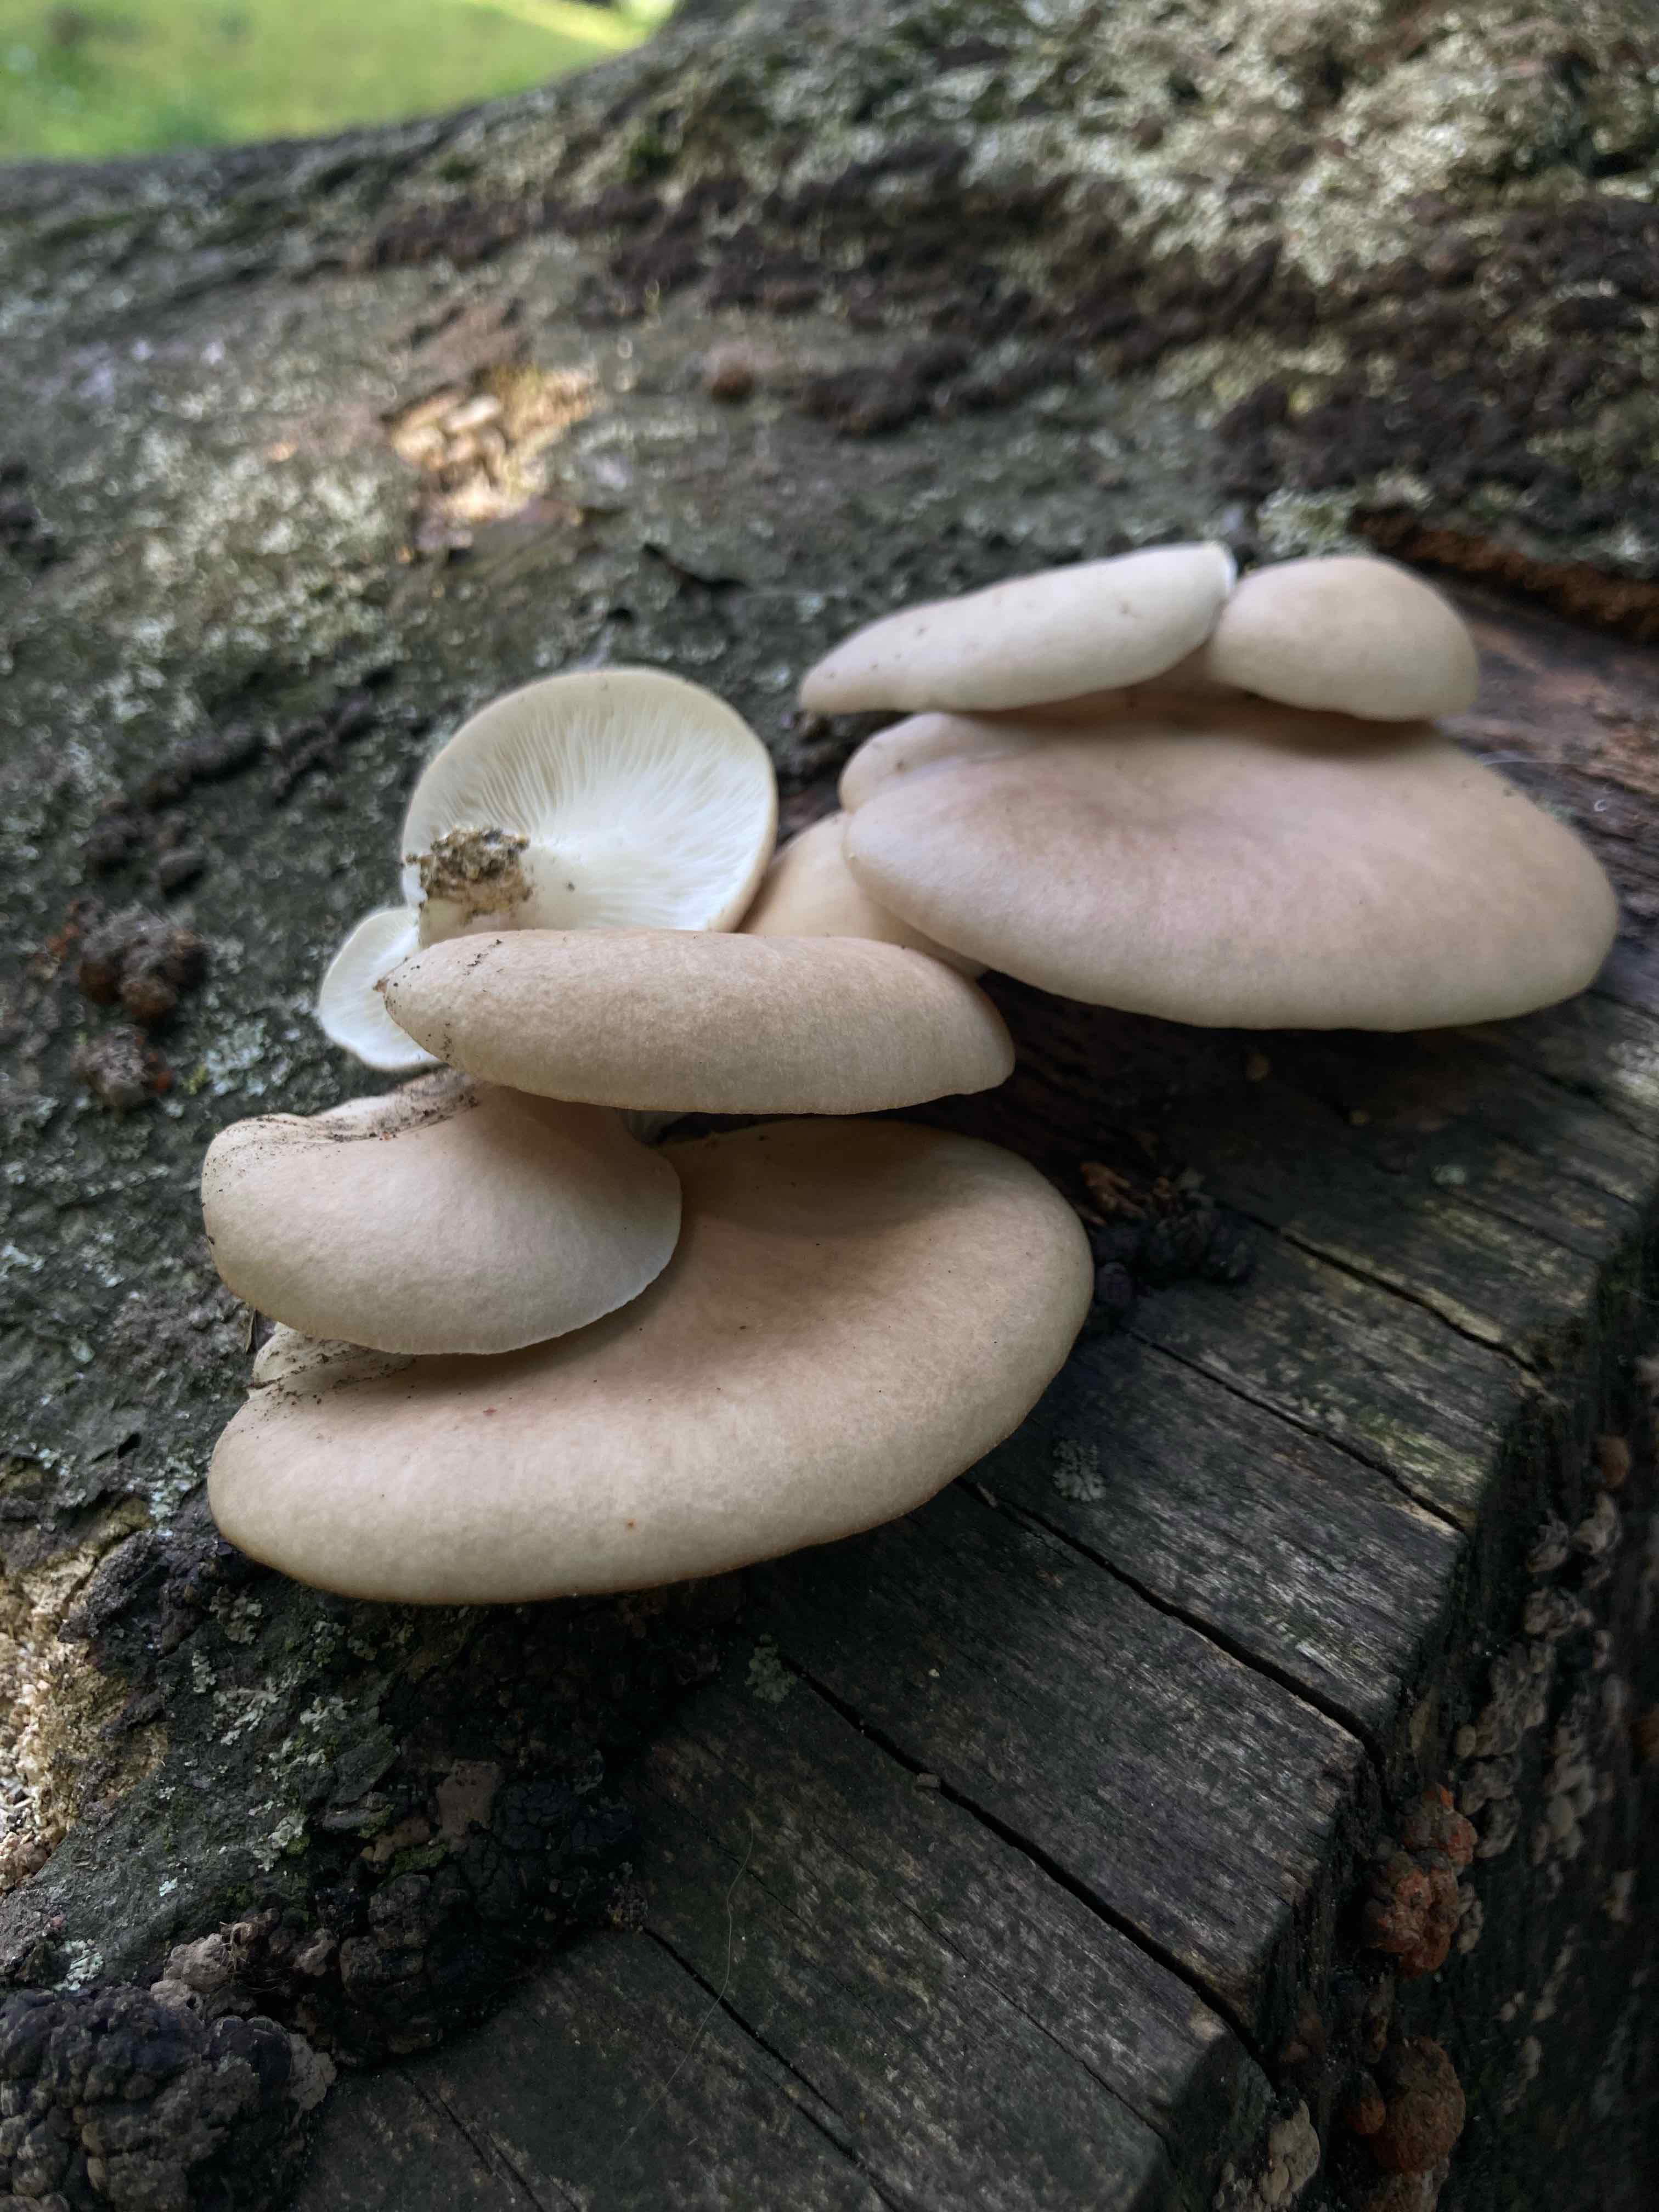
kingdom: Fungi
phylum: Basidiomycota
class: Agaricomycetes
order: Agaricales
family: Pleurotaceae
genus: Pleurotus
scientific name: Pleurotus pulmonarius
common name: sommer-østershat
